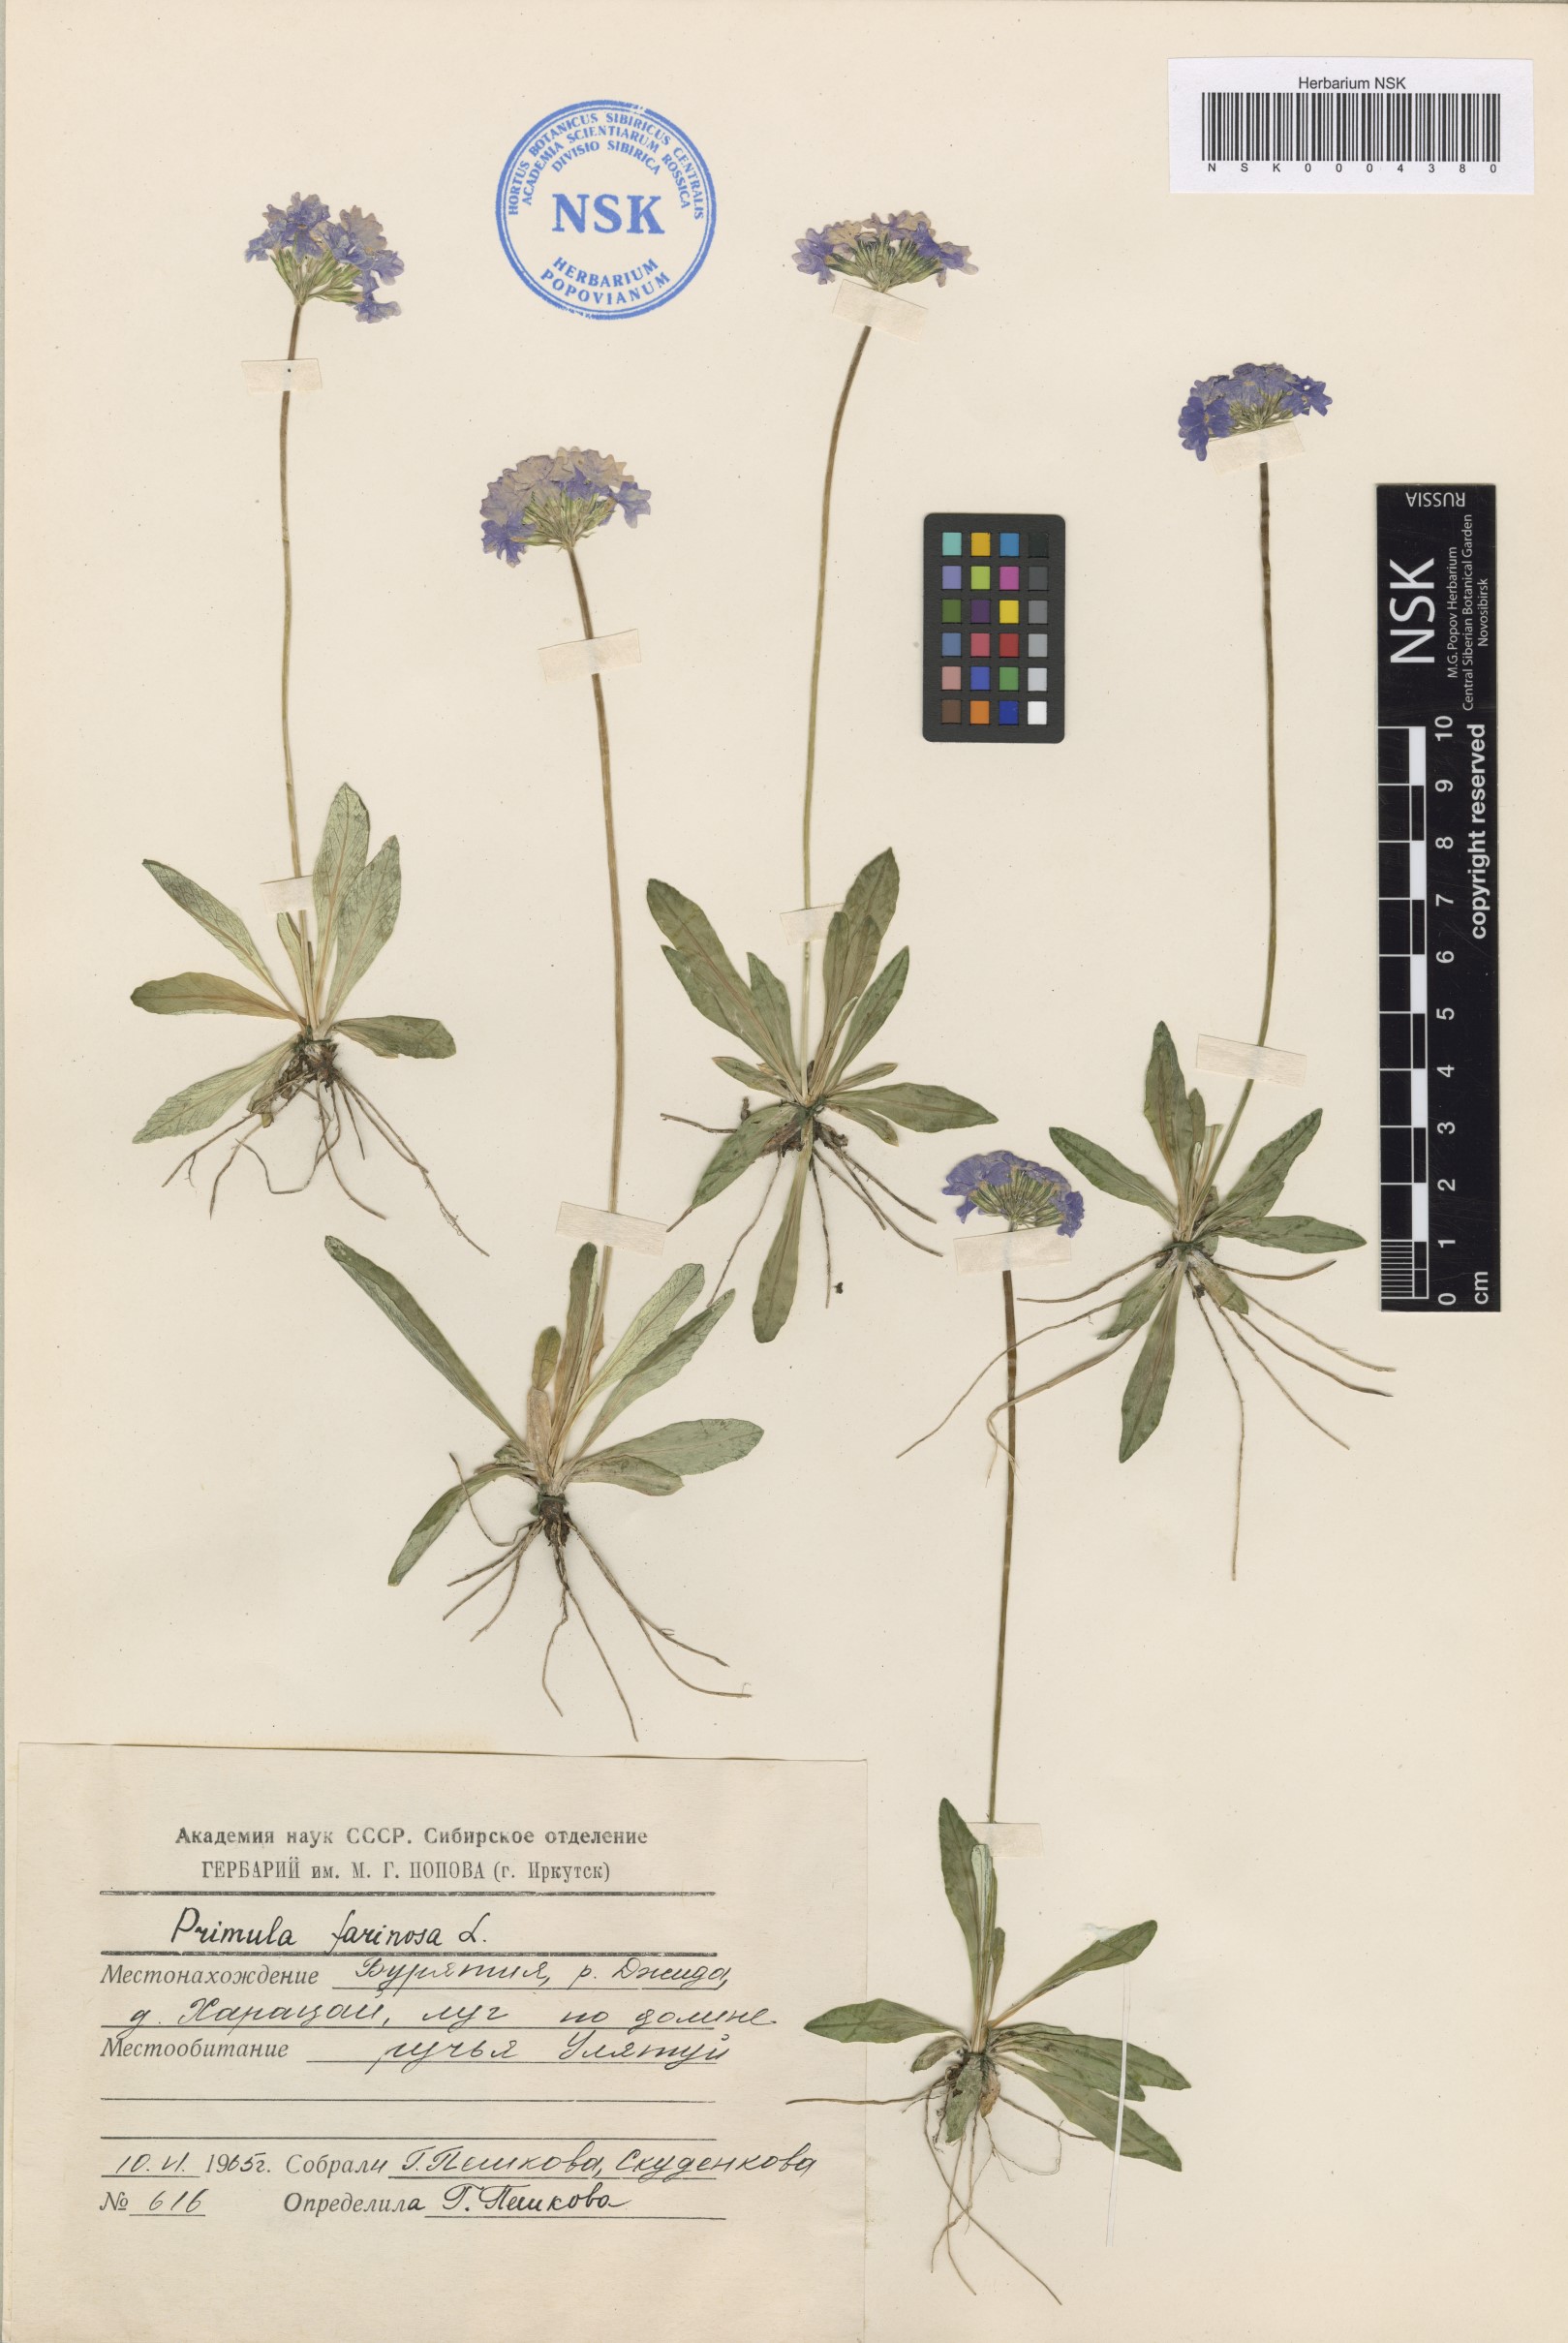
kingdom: Plantae
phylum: Tracheophyta
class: Magnoliopsida
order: Ericales
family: Primulaceae
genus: Primula
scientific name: Primula farinosa
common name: Bird's-eye primrose
